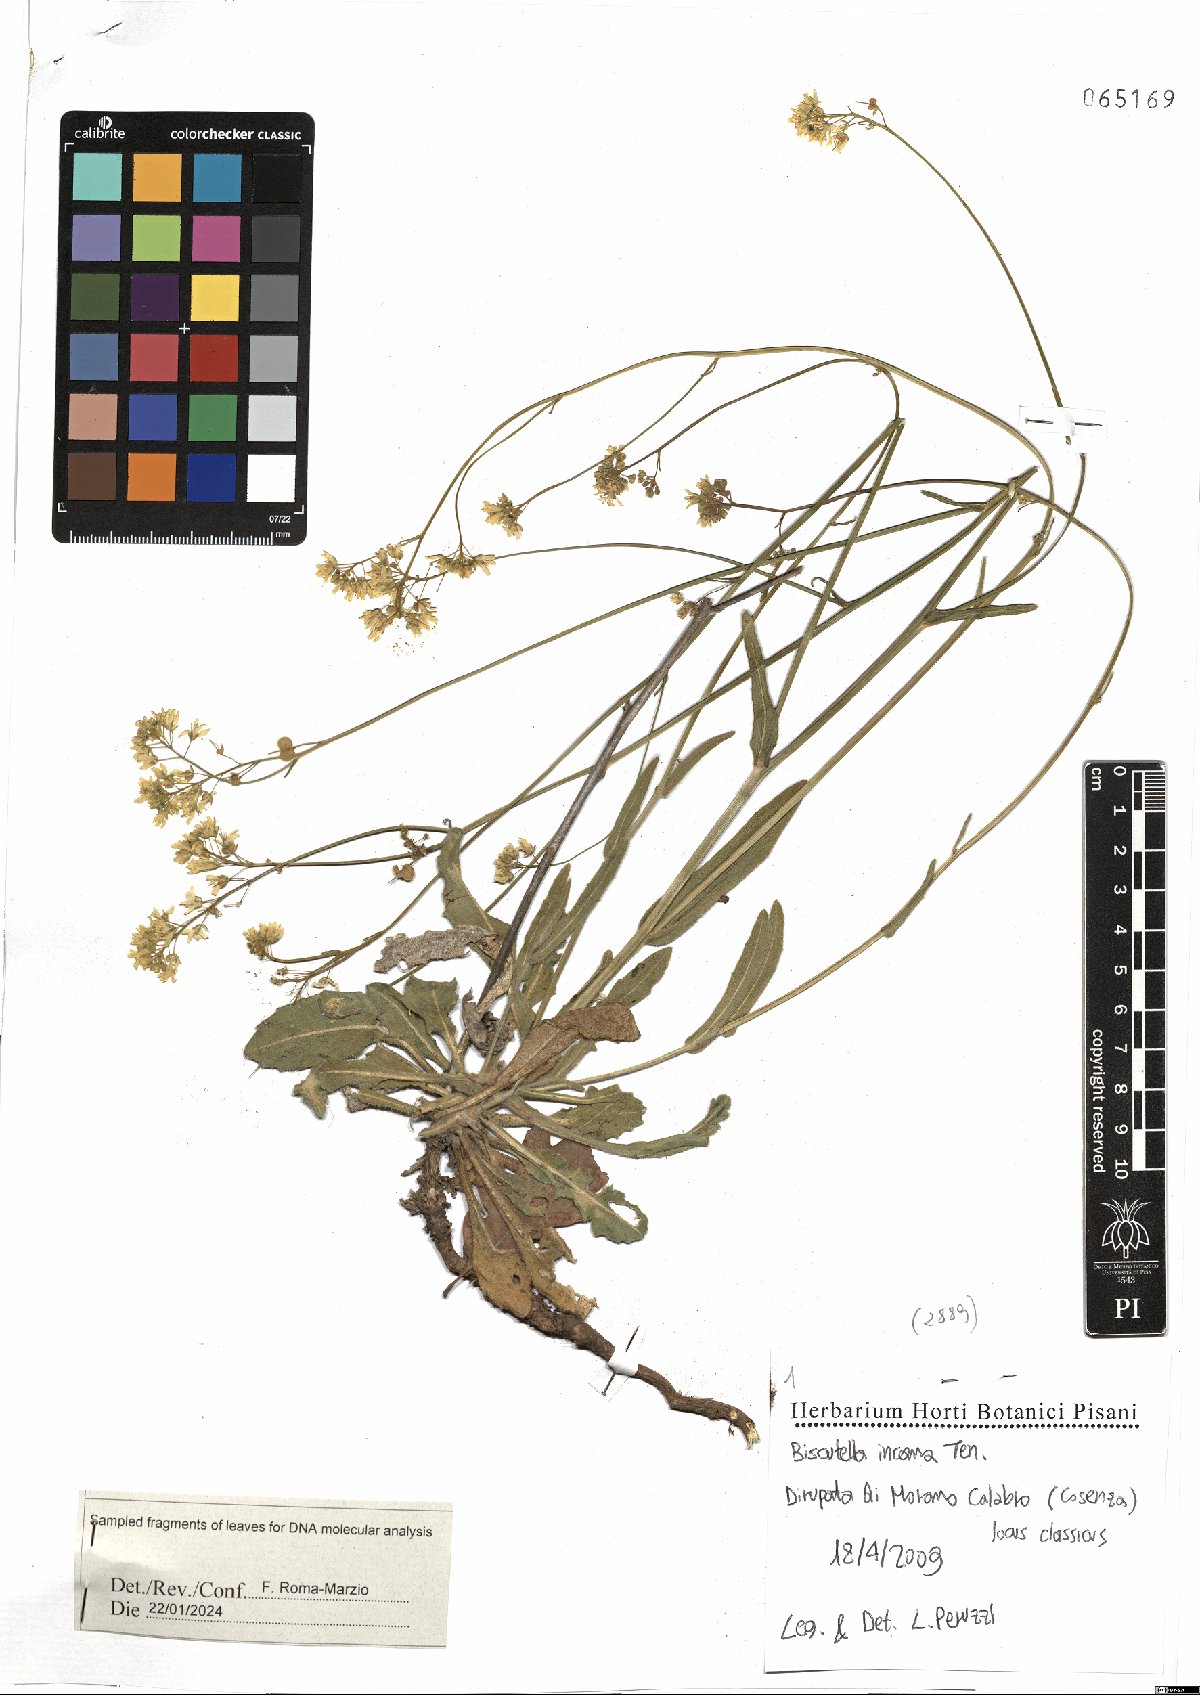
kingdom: Plantae
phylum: Tracheophyta
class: Magnoliopsida
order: Brassicales
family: Brassicaceae
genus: Biscutella
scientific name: Biscutella incana
